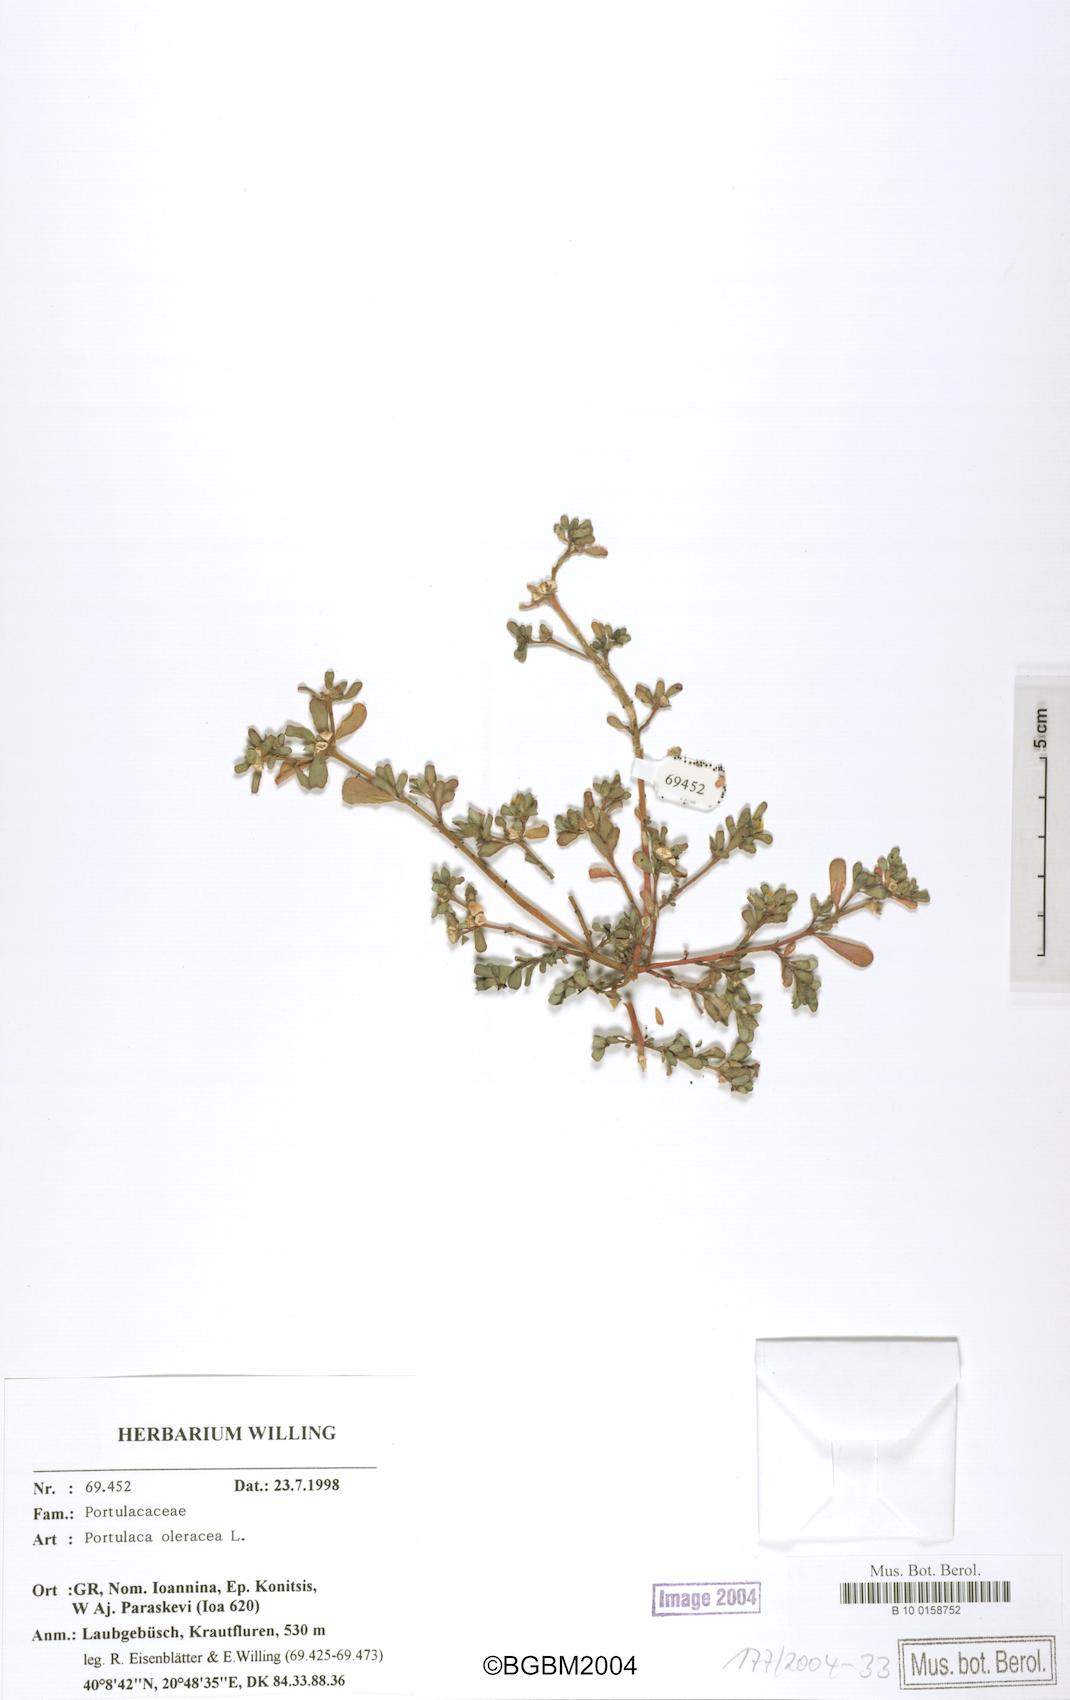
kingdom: Plantae
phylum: Tracheophyta
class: Magnoliopsida
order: Caryophyllales
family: Portulacaceae
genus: Portulaca
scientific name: Portulaca oleracea
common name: Common purslane
